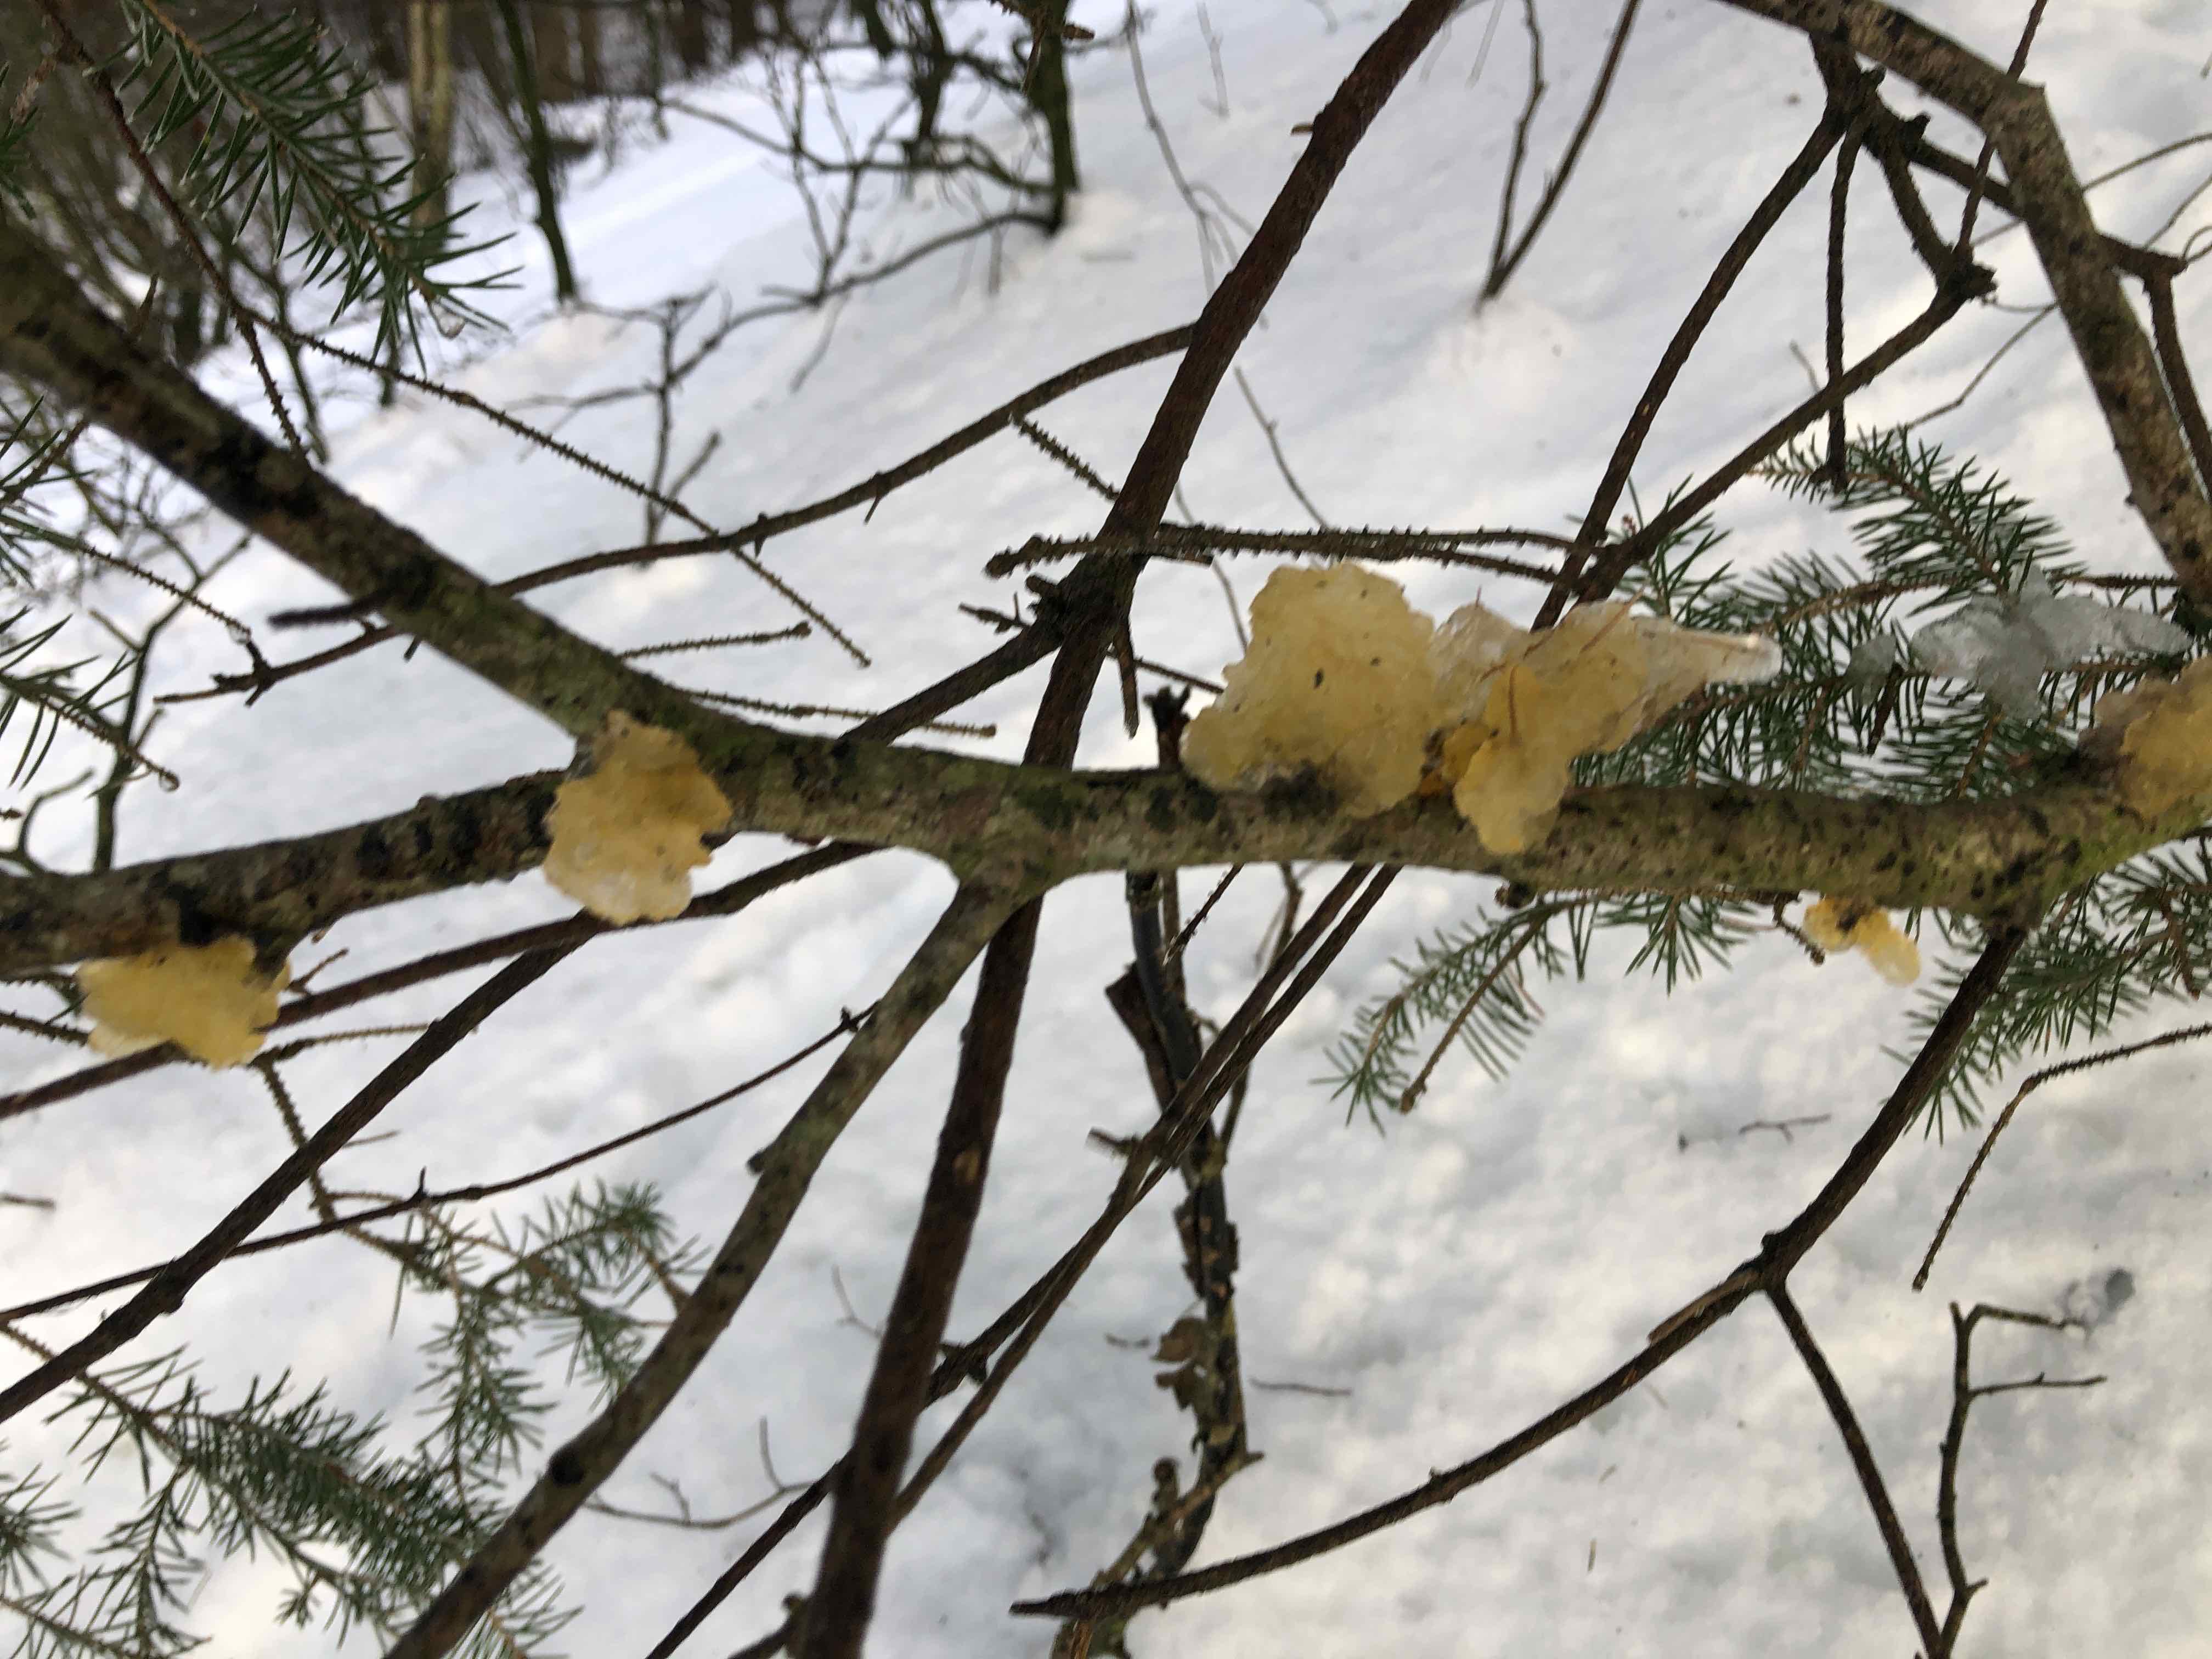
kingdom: Fungi
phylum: Basidiomycota
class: Tremellomycetes
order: Tremellales
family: Tremellaceae
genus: Tremella
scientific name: Tremella mesenterica
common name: gul bævresvamp
